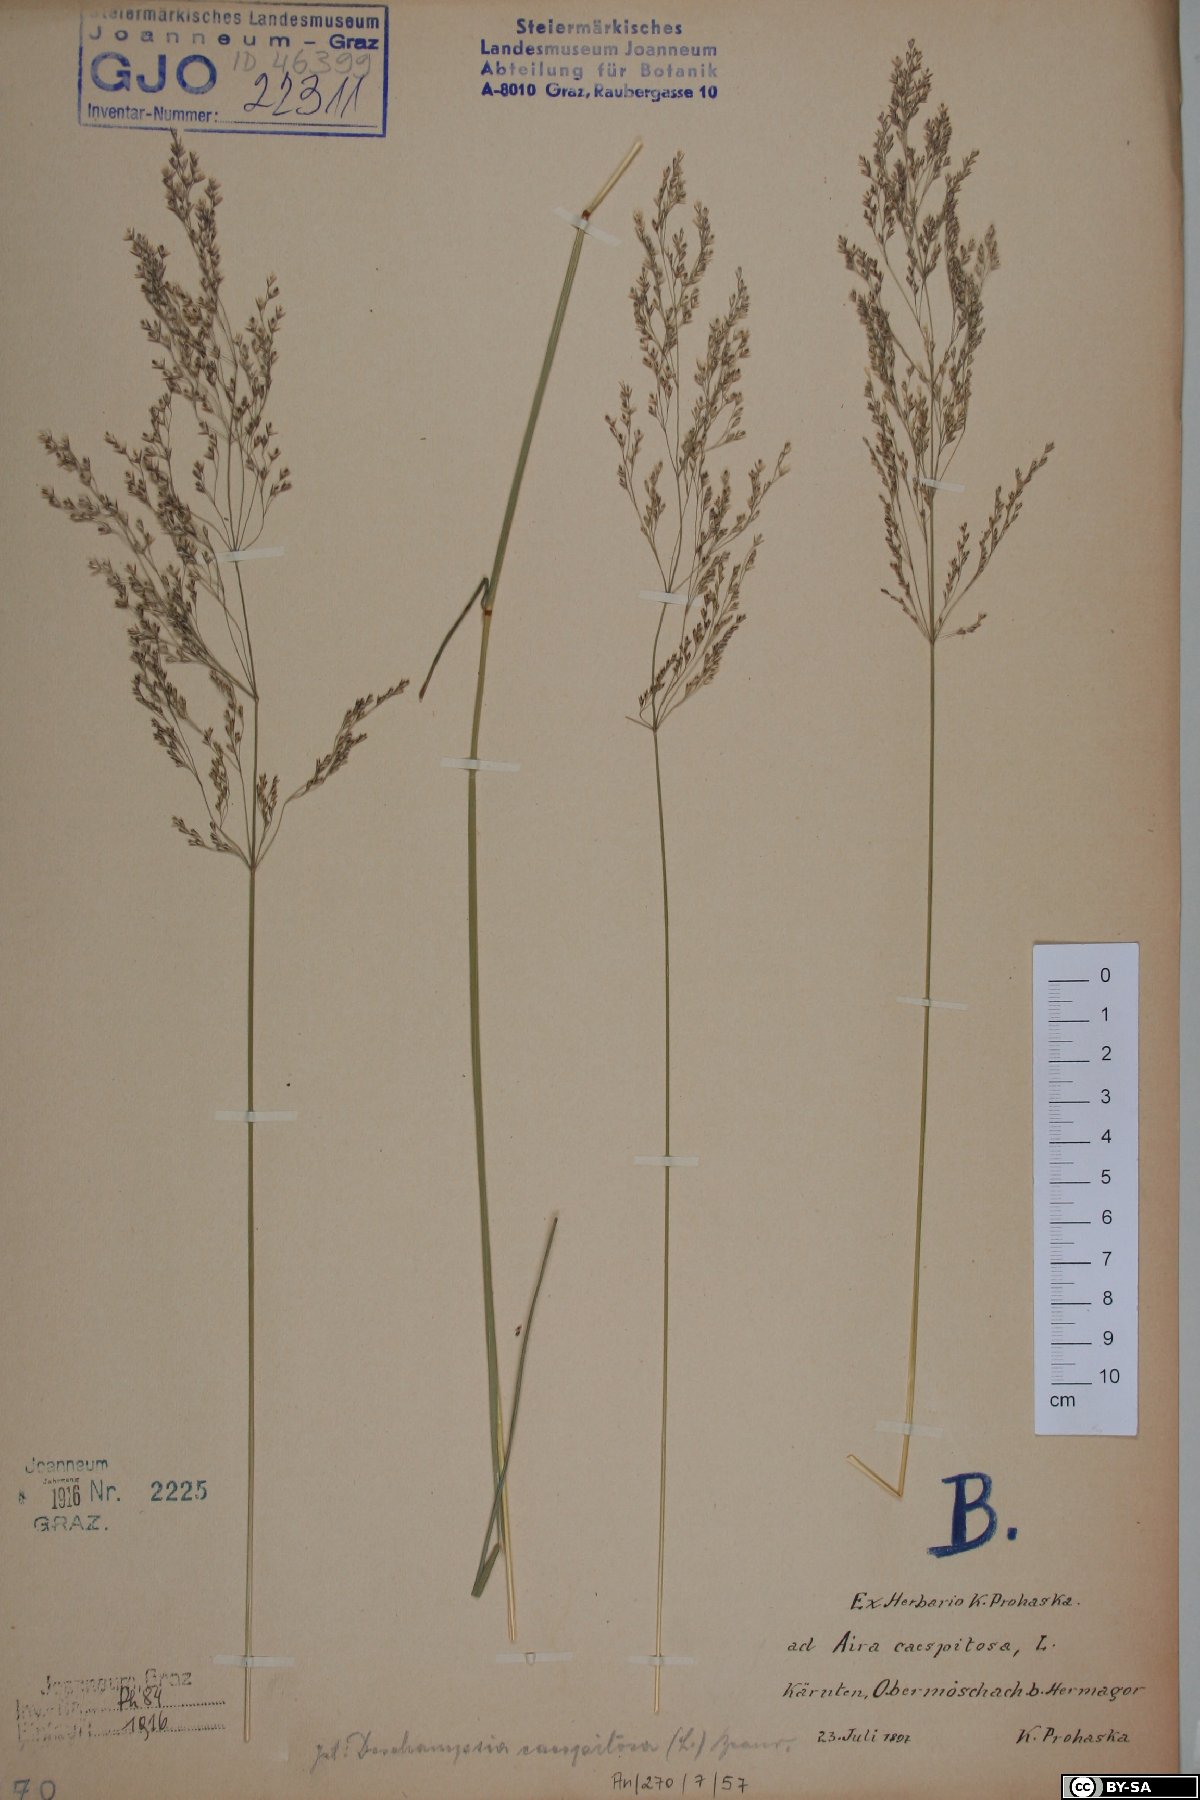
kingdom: Plantae
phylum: Tracheophyta
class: Liliopsida
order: Poales
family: Poaceae
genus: Deschampsia
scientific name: Deschampsia cespitosa
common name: Tufted hair-grass
